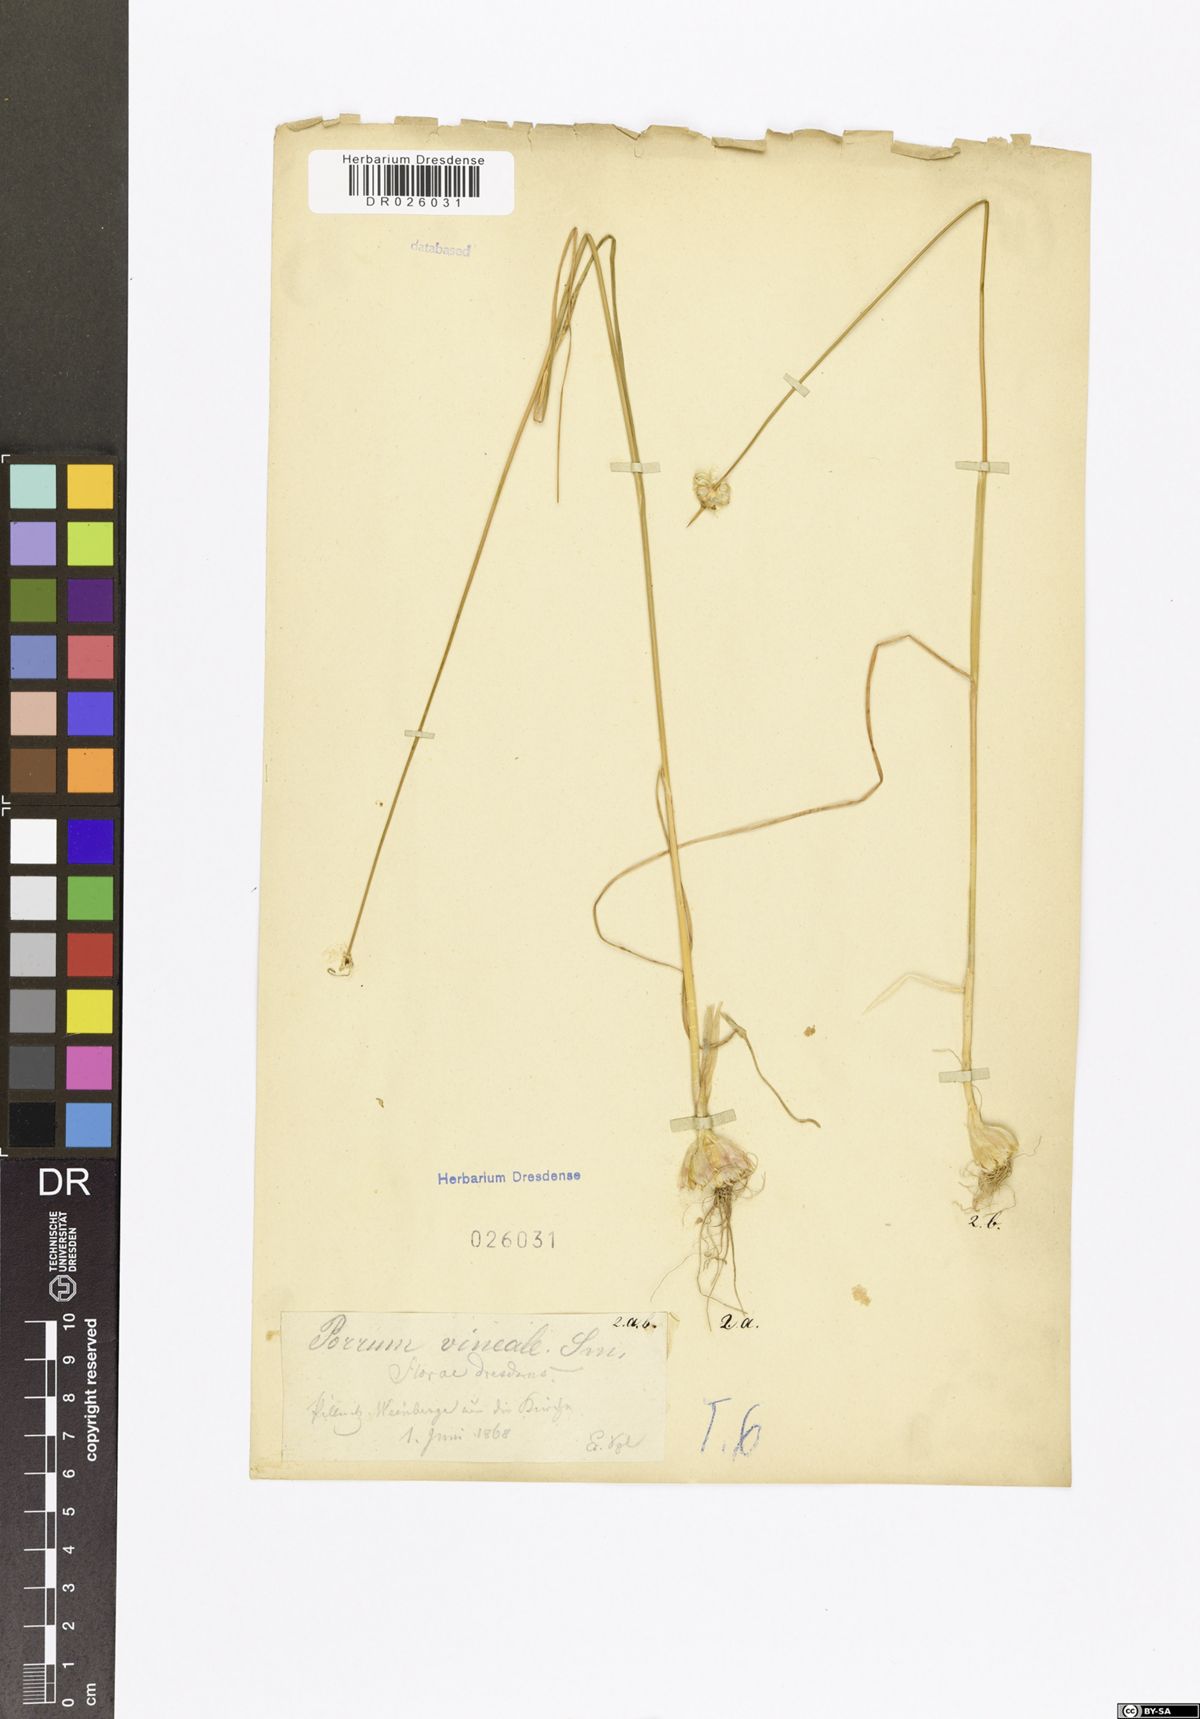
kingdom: Plantae
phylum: Tracheophyta
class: Liliopsida
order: Asparagales
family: Amaryllidaceae
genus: Allium
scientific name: Allium vineale
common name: Crow garlic
